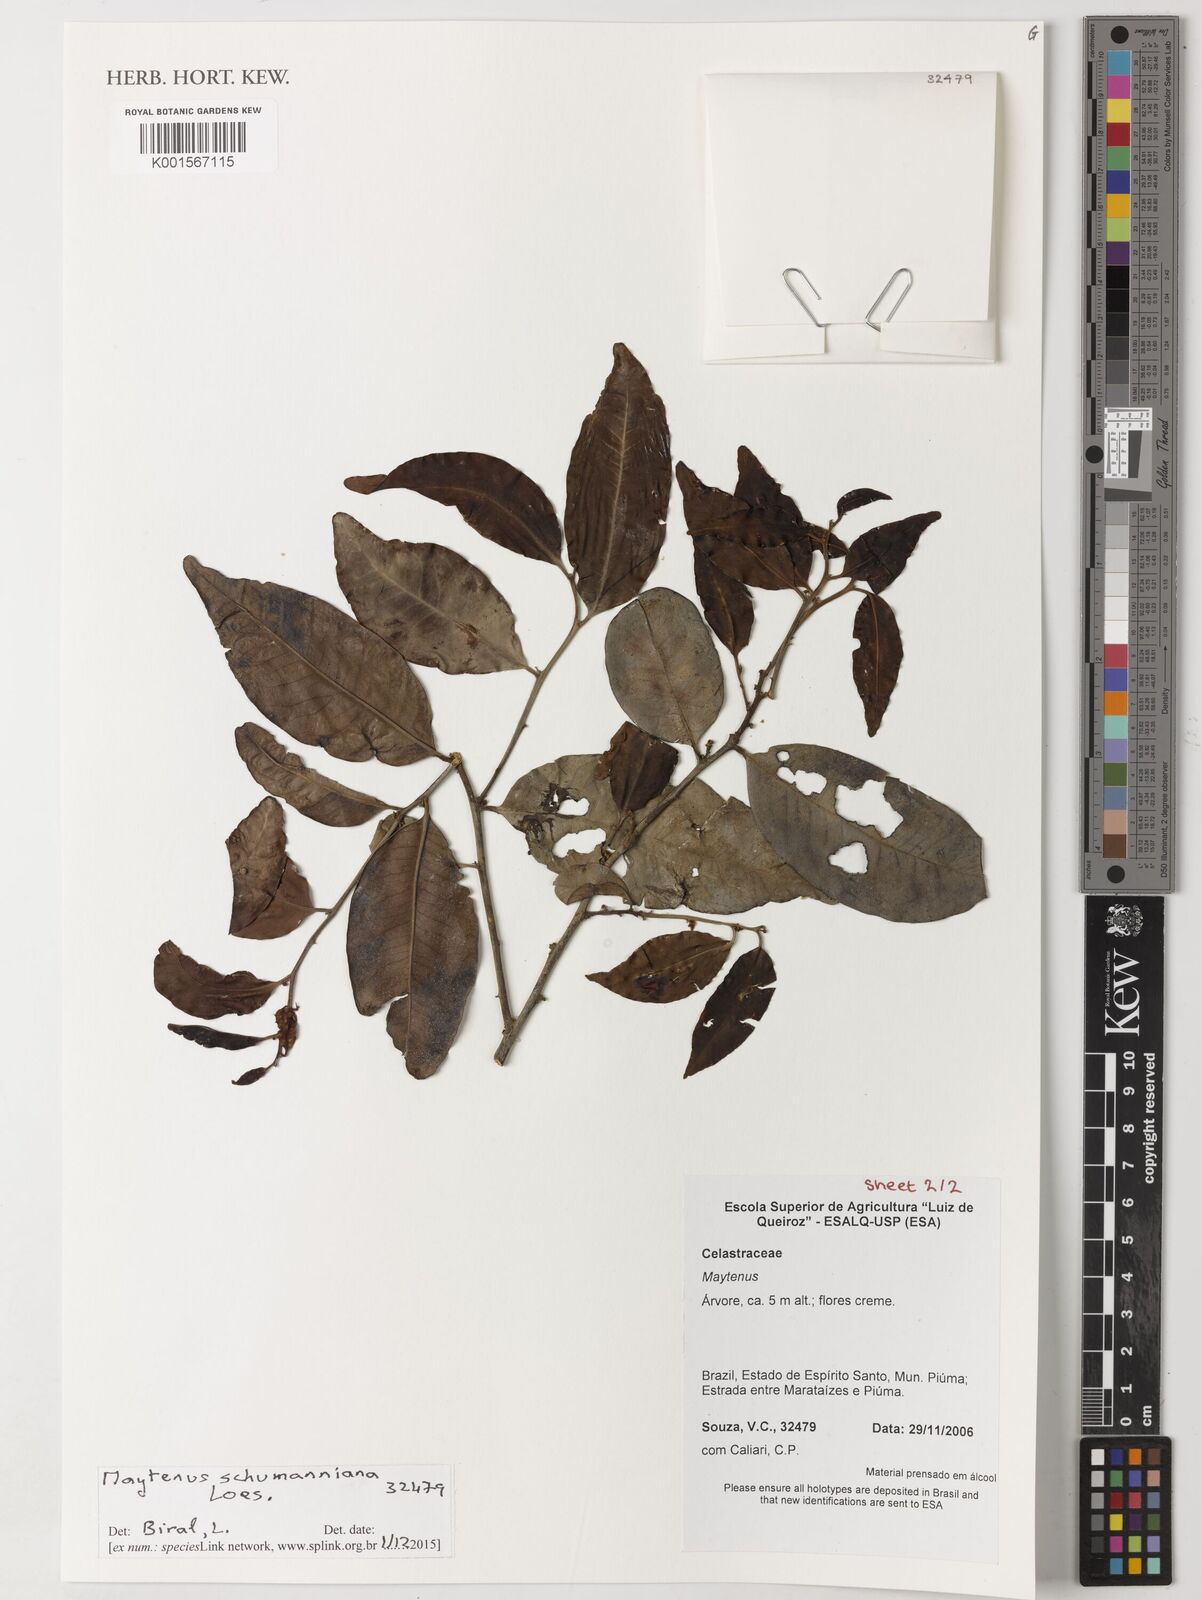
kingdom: Plantae
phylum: Tracheophyta
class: Magnoliopsida
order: Celastrales
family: Celastraceae
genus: Monteverdia
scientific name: Monteverdia schumanniana
